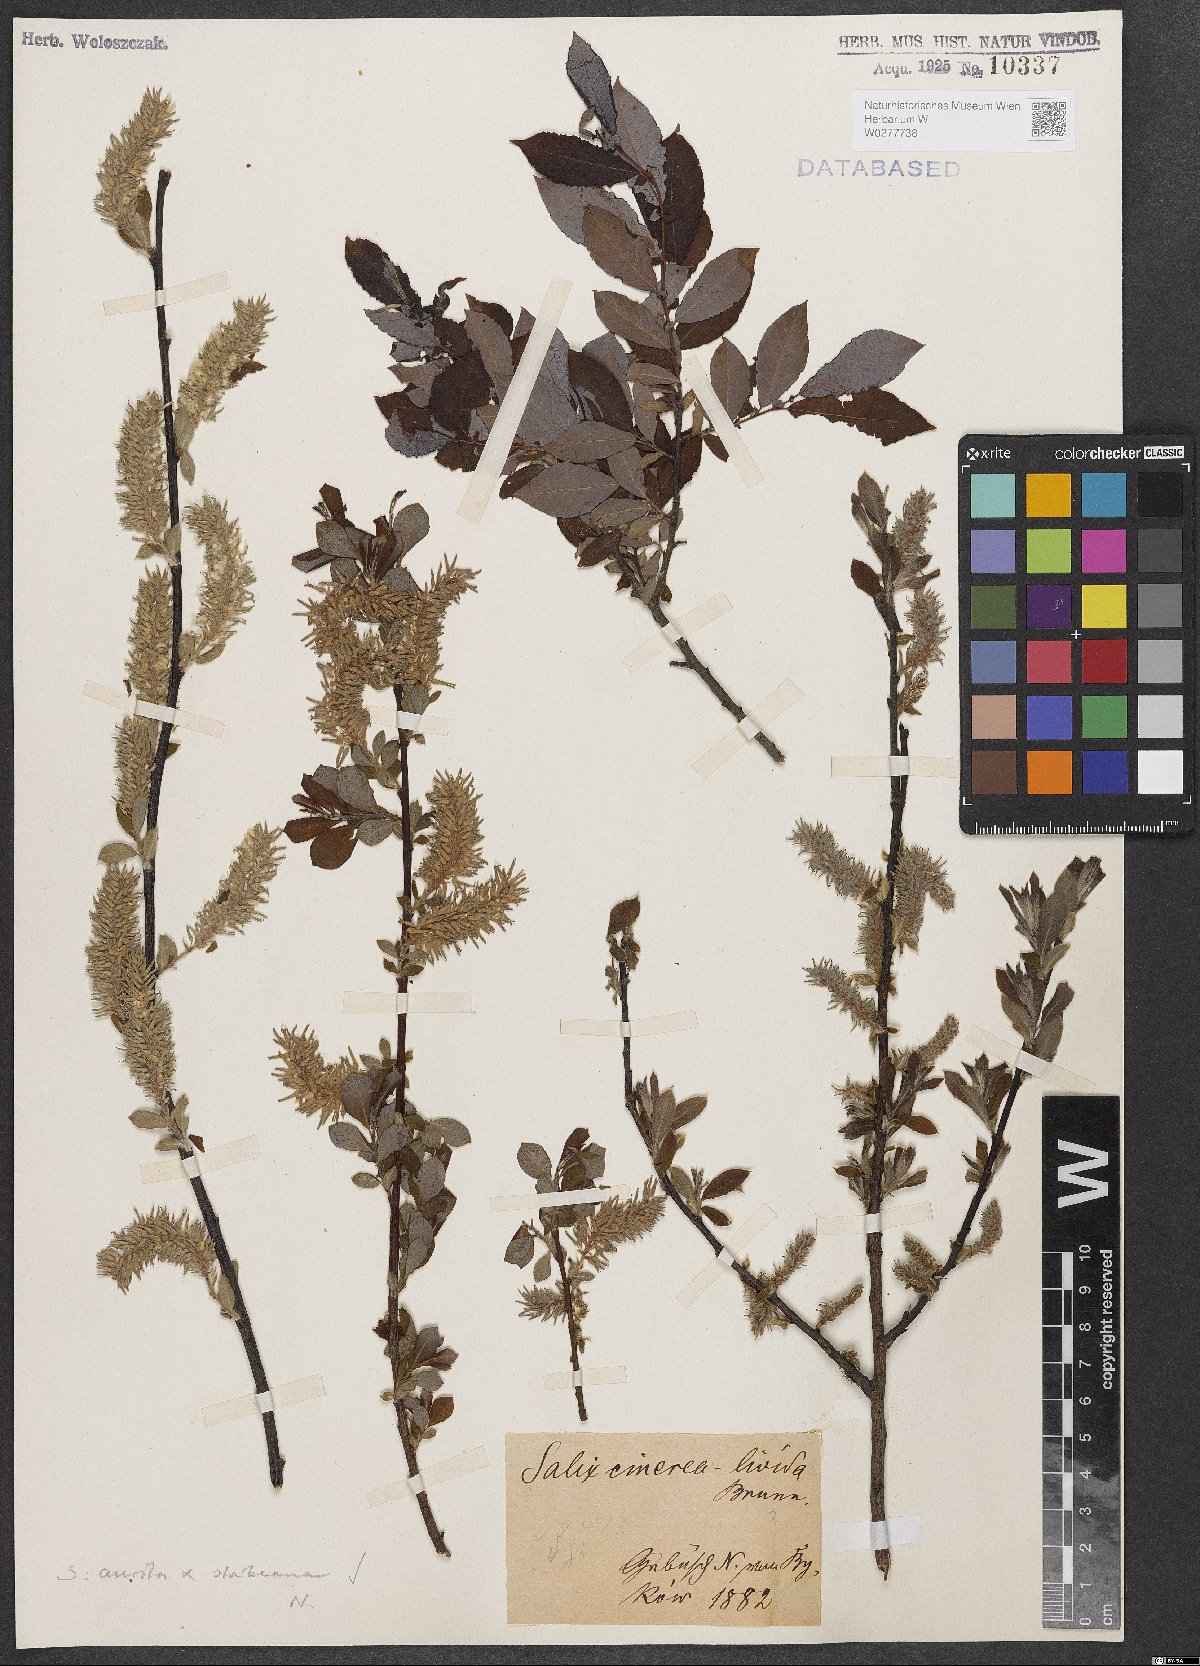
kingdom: Plantae
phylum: Tracheophyta
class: Magnoliopsida
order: Malpighiales
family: Salicaceae
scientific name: Salicaceae
